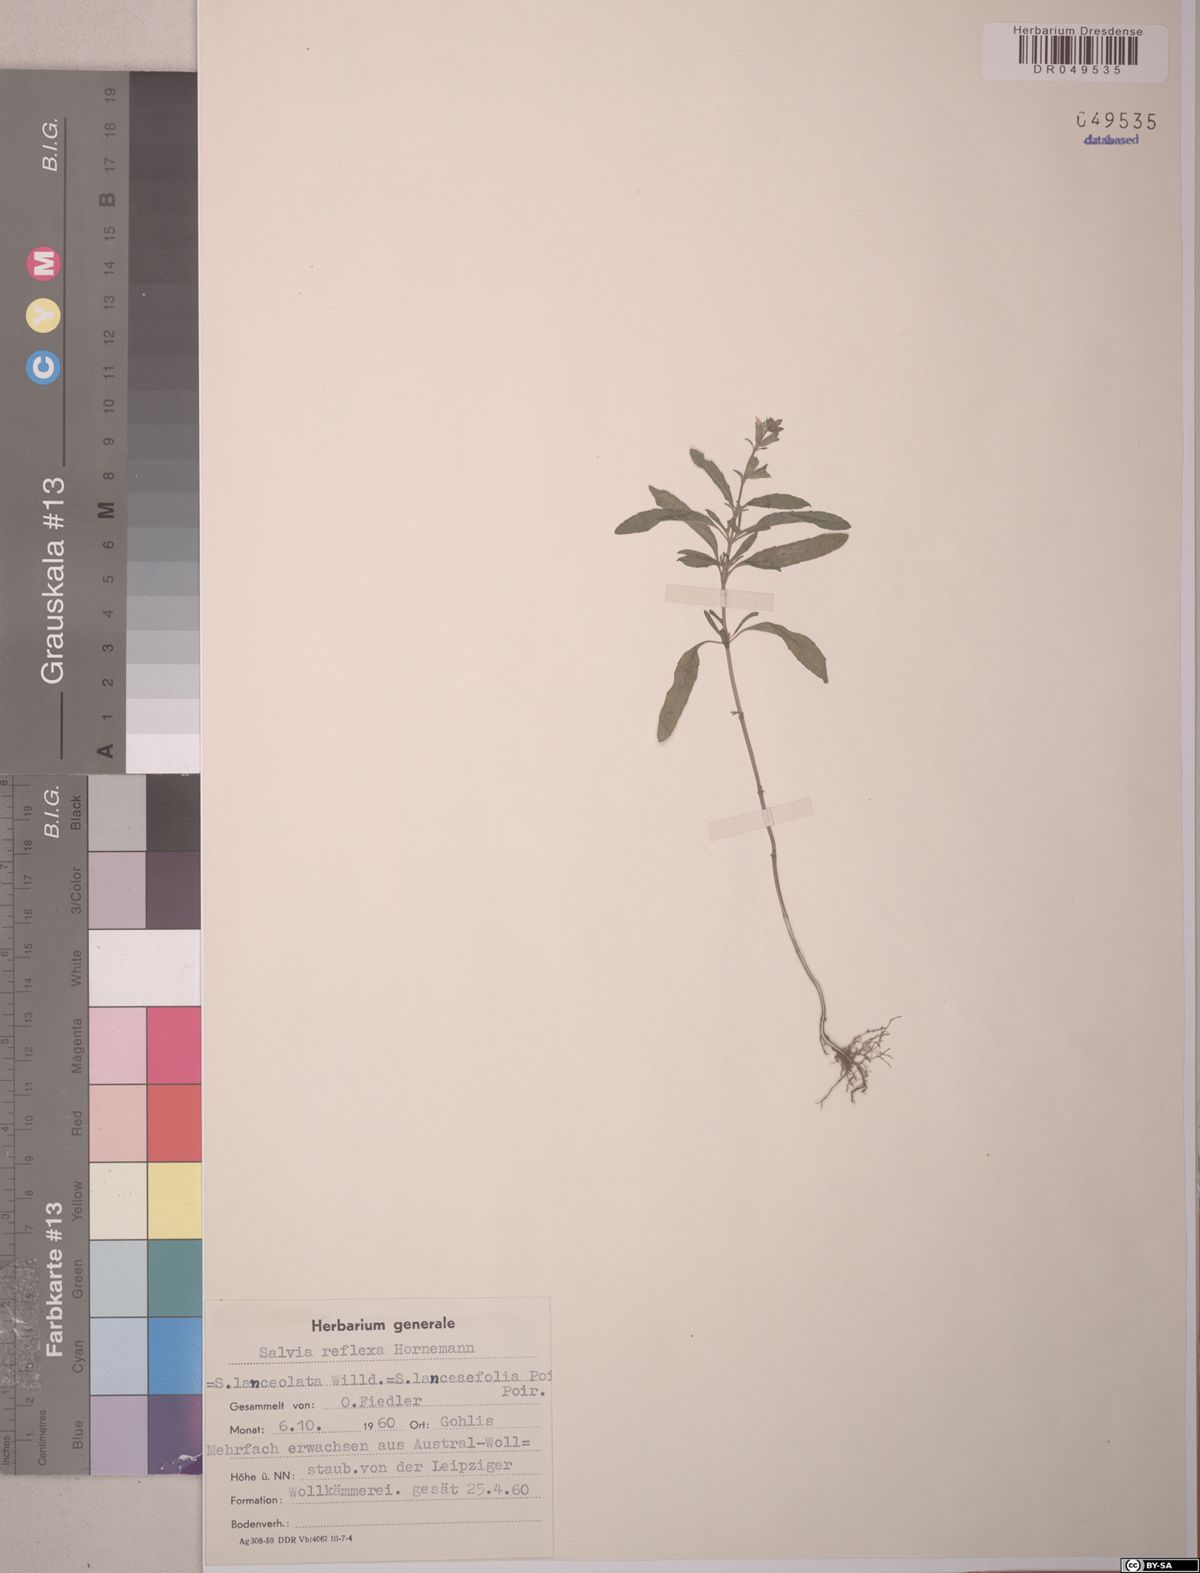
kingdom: Plantae
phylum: Tracheophyta
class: Magnoliopsida
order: Lamiales
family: Lamiaceae
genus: Salvia
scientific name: Salvia reflexa
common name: Mintweed
